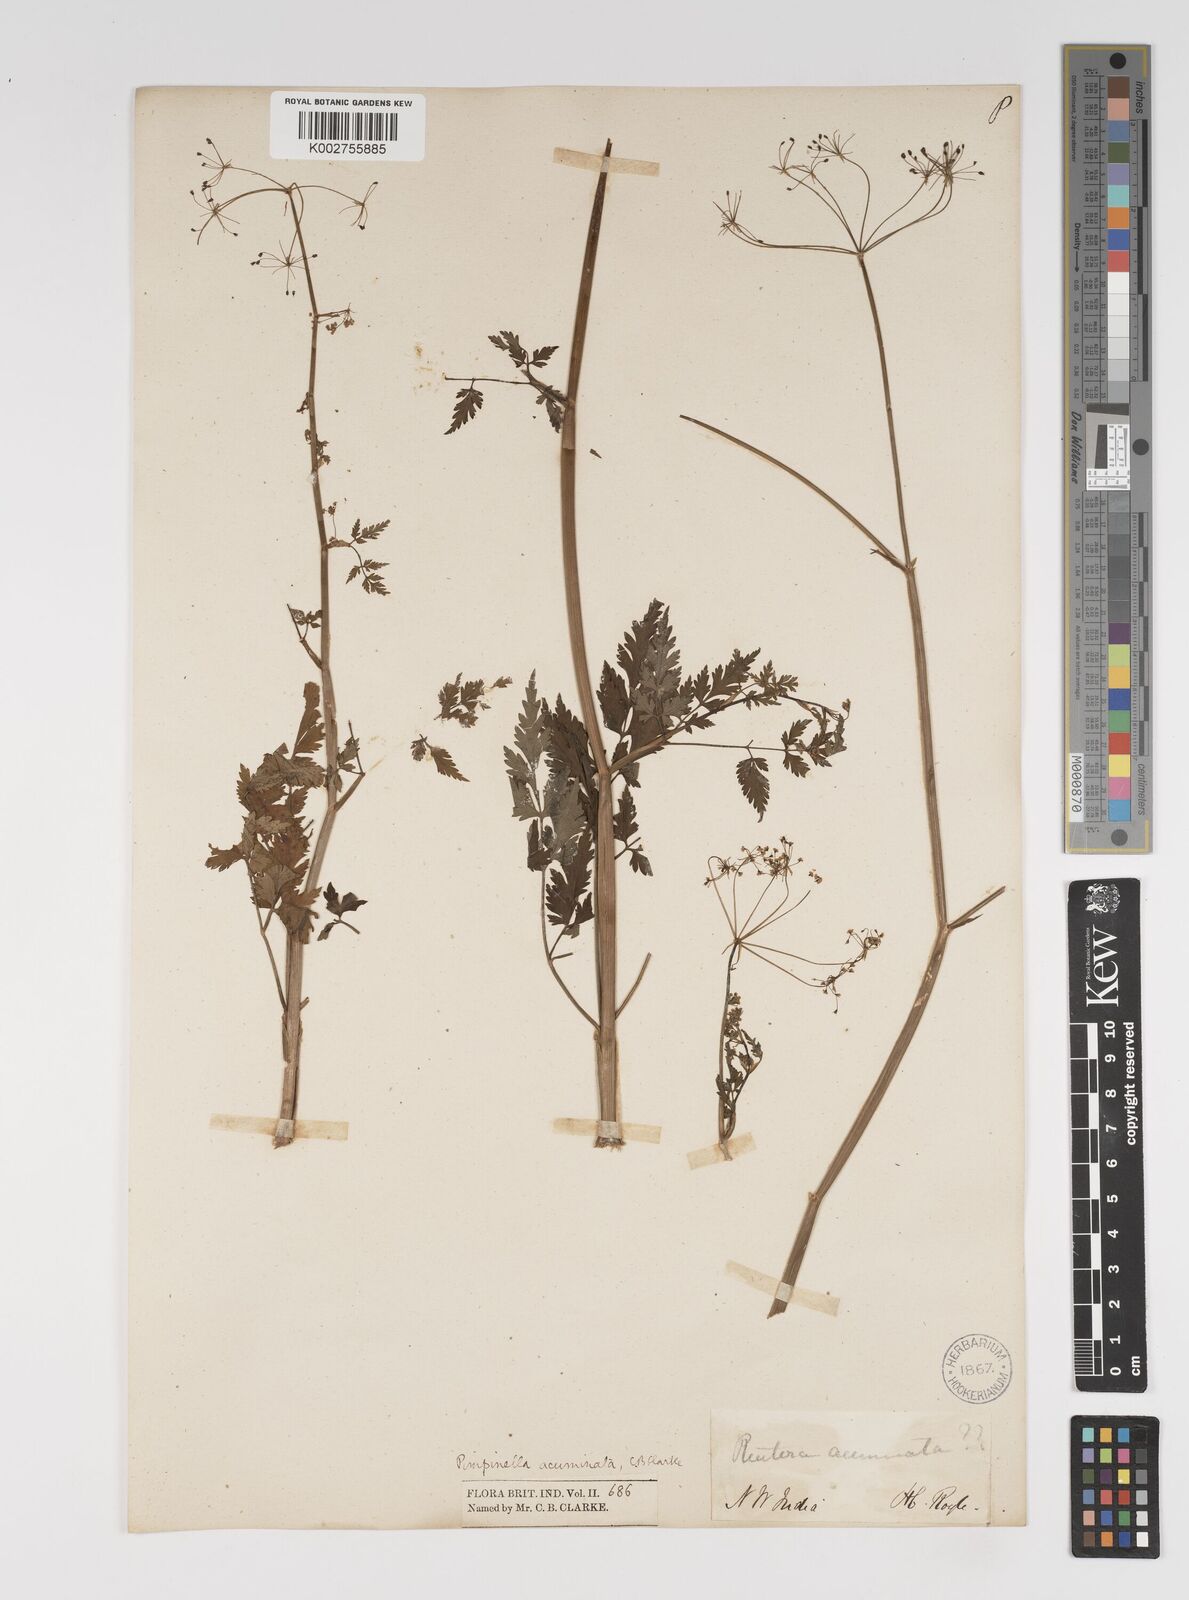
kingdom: Plantae
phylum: Tracheophyta
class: Magnoliopsida
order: Apiales
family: Apiaceae
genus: Pimpinella
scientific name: Pimpinella acuminata
